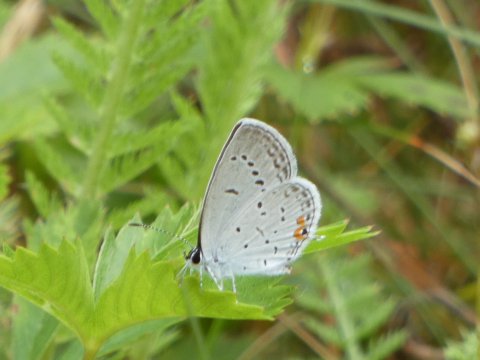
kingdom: Animalia
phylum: Arthropoda
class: Insecta
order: Lepidoptera
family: Lycaenidae
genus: Elkalyce
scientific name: Elkalyce comyntas
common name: Eastern Tailed-Blue
